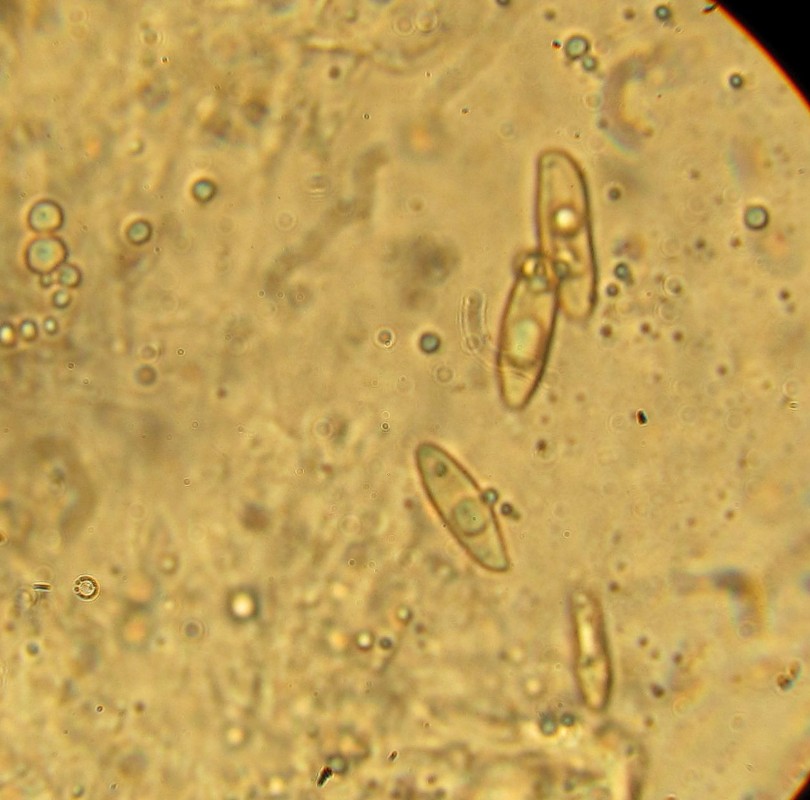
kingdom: Fungi
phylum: Basidiomycota
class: Agaricomycetes
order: Boletales
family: Boletaceae
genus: Leccinum
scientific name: Leccinum cyaneobasileucum
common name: almindelig skælrørhat
